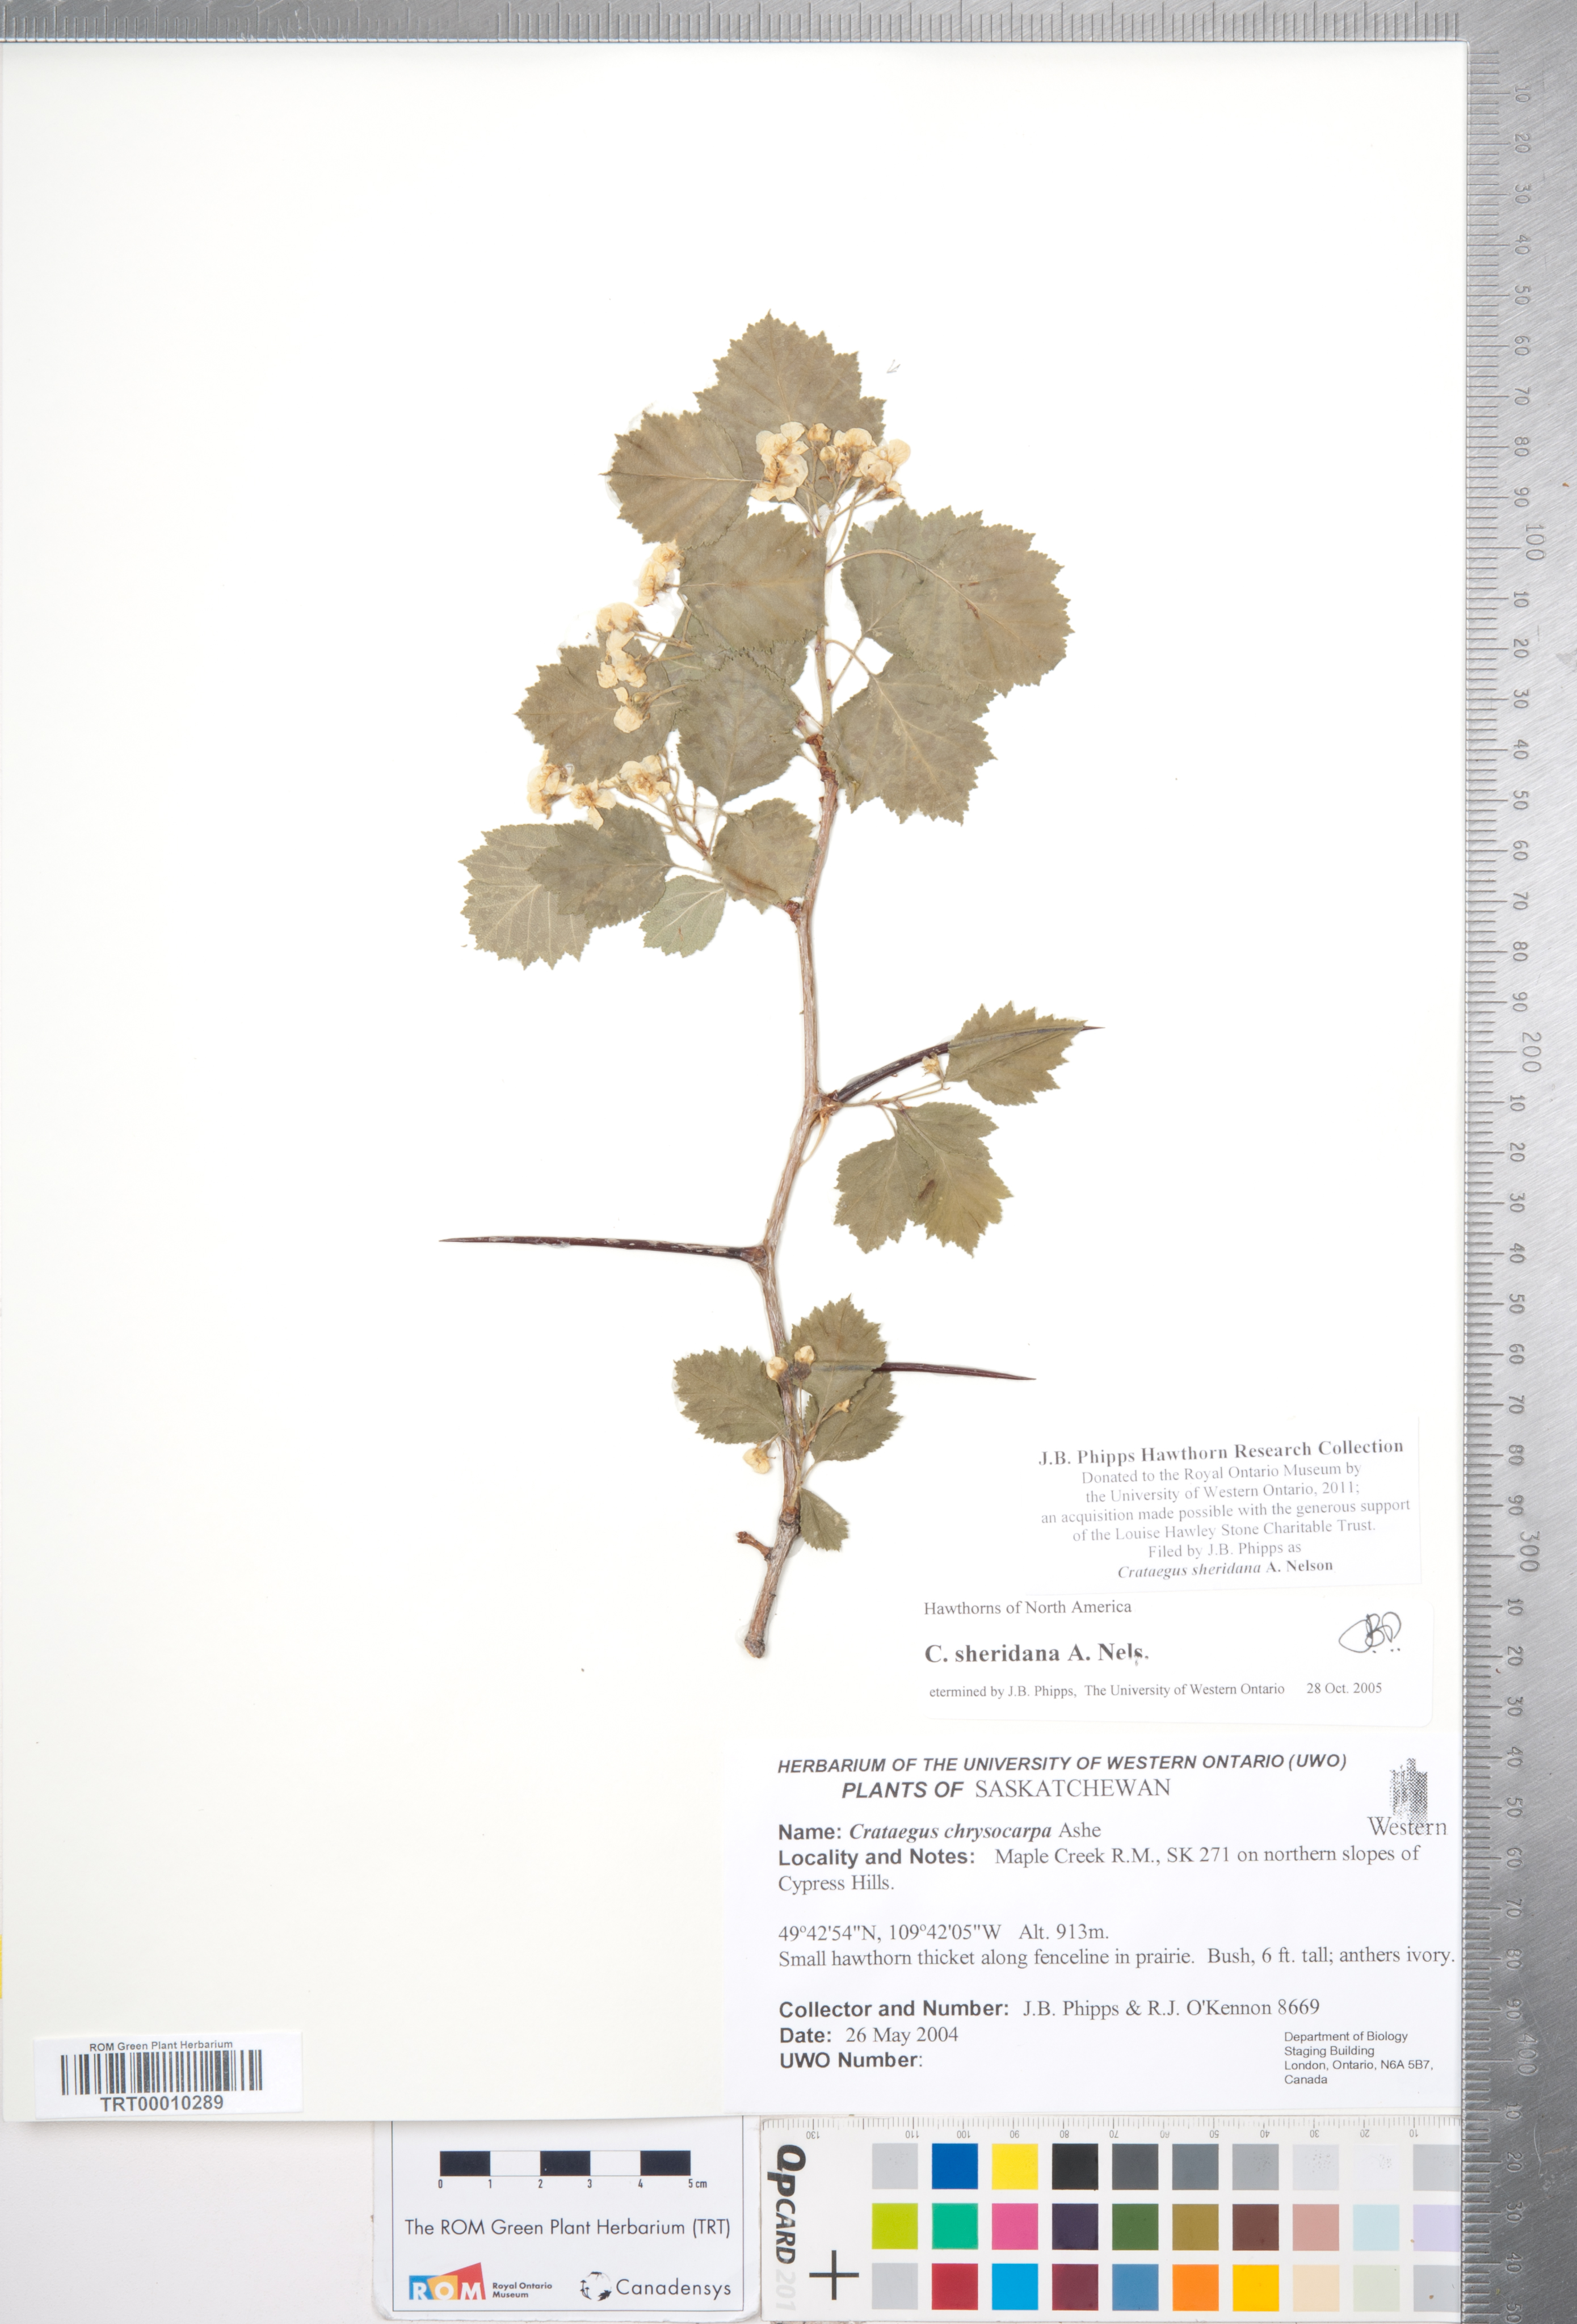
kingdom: Plantae
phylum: Tracheophyta
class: Magnoliopsida
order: Rosales
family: Rosaceae
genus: Crataegus
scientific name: Crataegus chrysocarpa
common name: Fire-berry hawthorn
